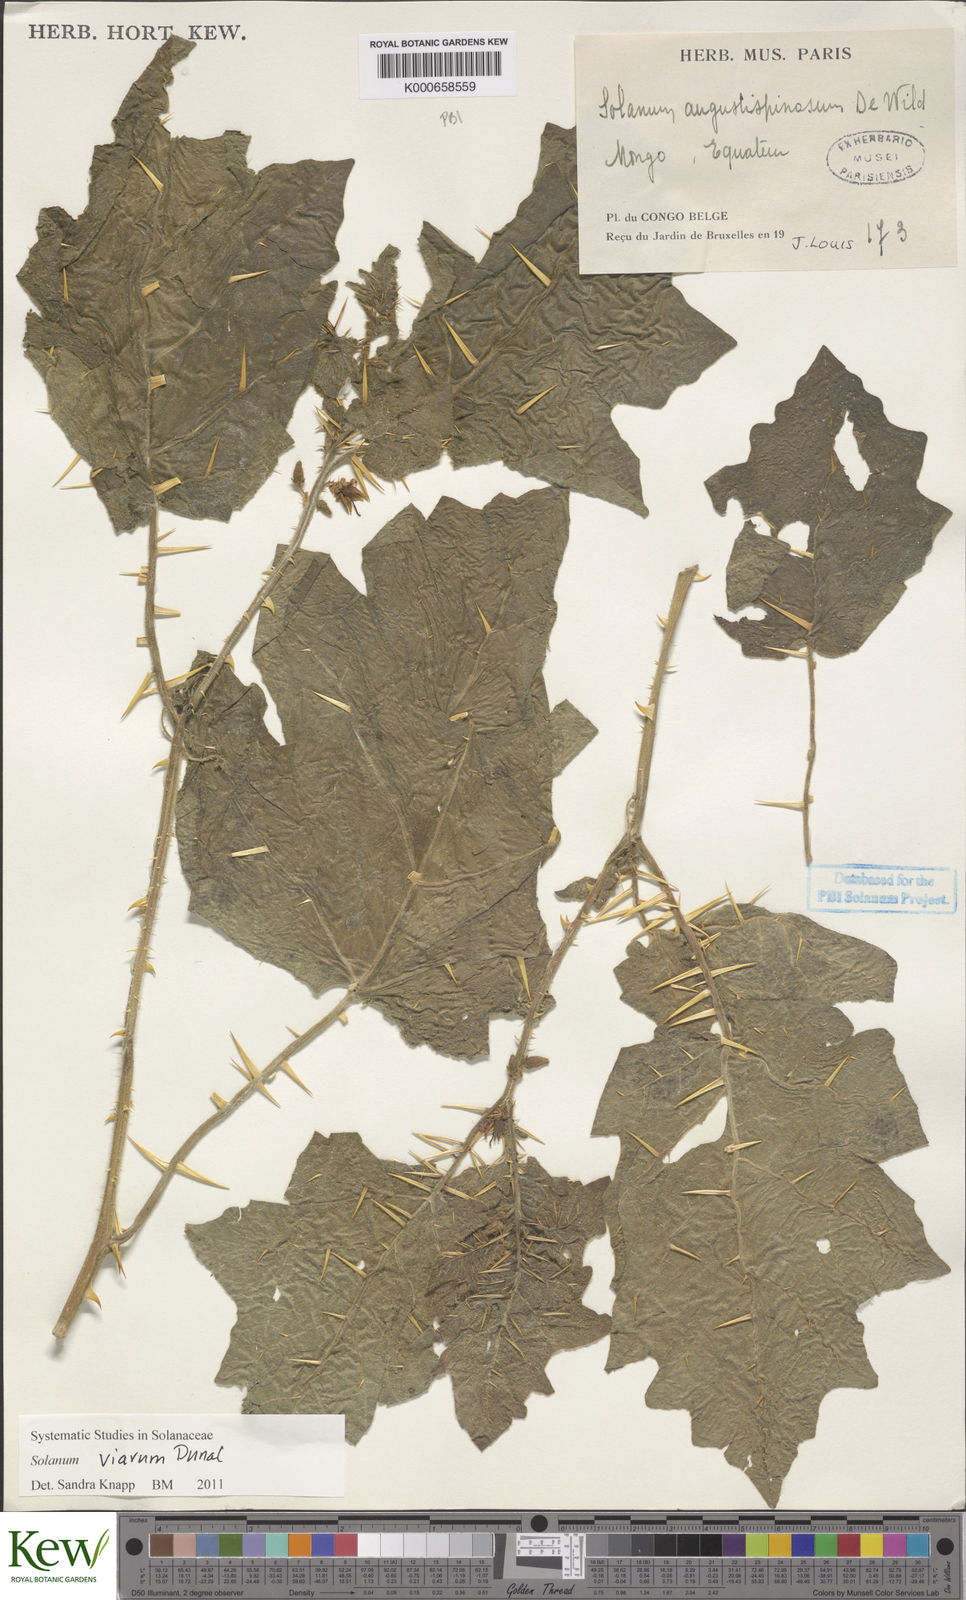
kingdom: Plantae
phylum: Tracheophyta
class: Magnoliopsida
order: Solanales
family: Solanaceae
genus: Solanum
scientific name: Solanum viarum
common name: Tropical soda apple
